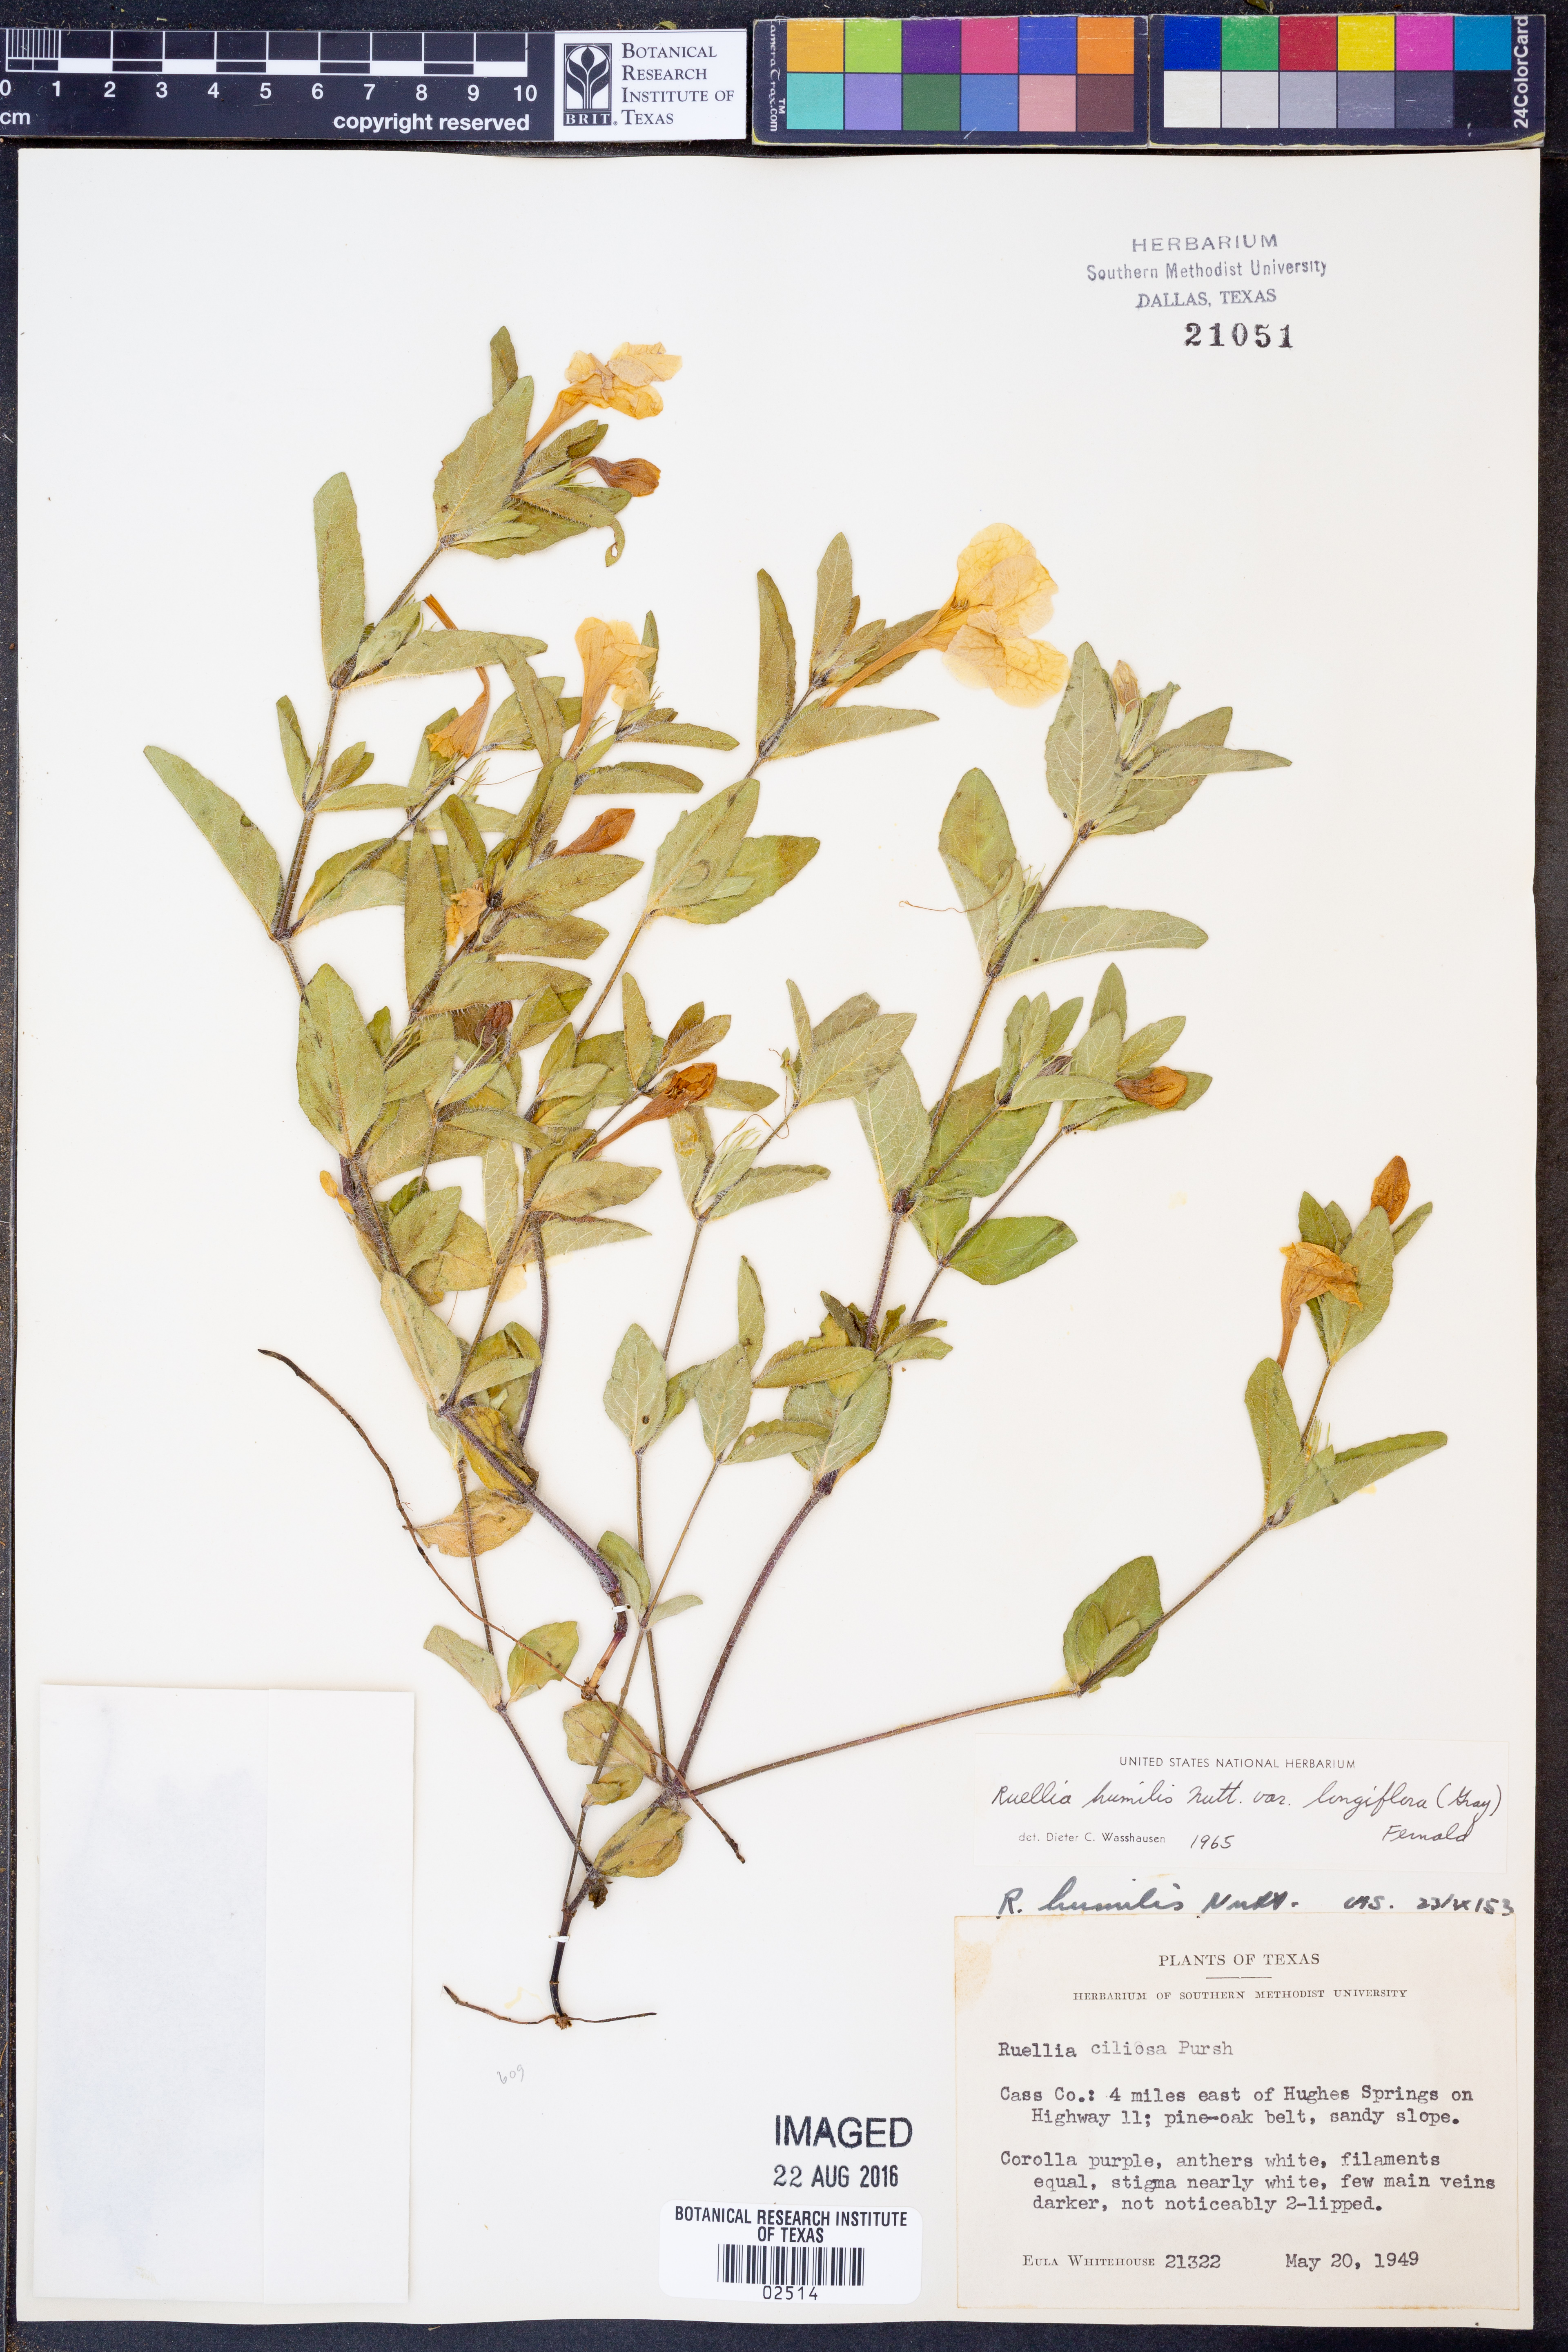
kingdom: Plantae
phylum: Tracheophyta
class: Magnoliopsida
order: Lamiales
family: Acanthaceae
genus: Ruellia
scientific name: Ruellia humilis
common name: Fringe-leaf ruellia
